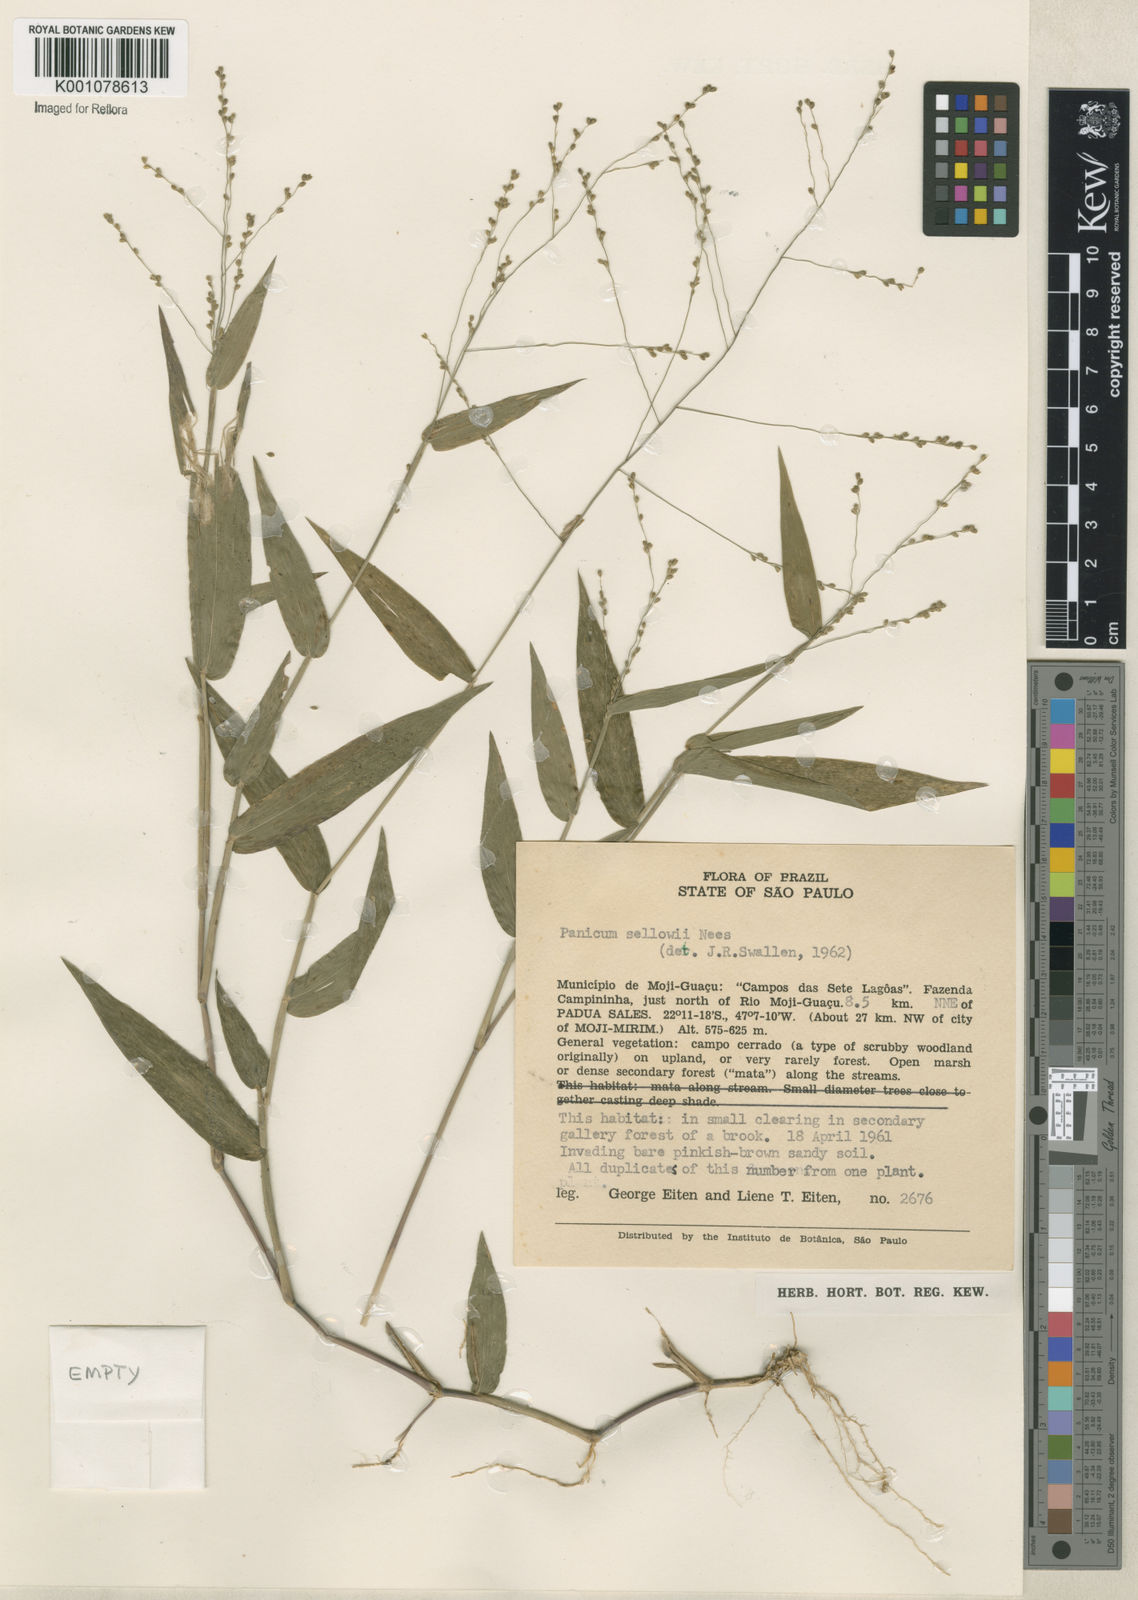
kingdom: Plantae
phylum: Tracheophyta
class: Liliopsida
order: Poales
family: Poaceae
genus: Panicum
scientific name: Panicum sellowii
